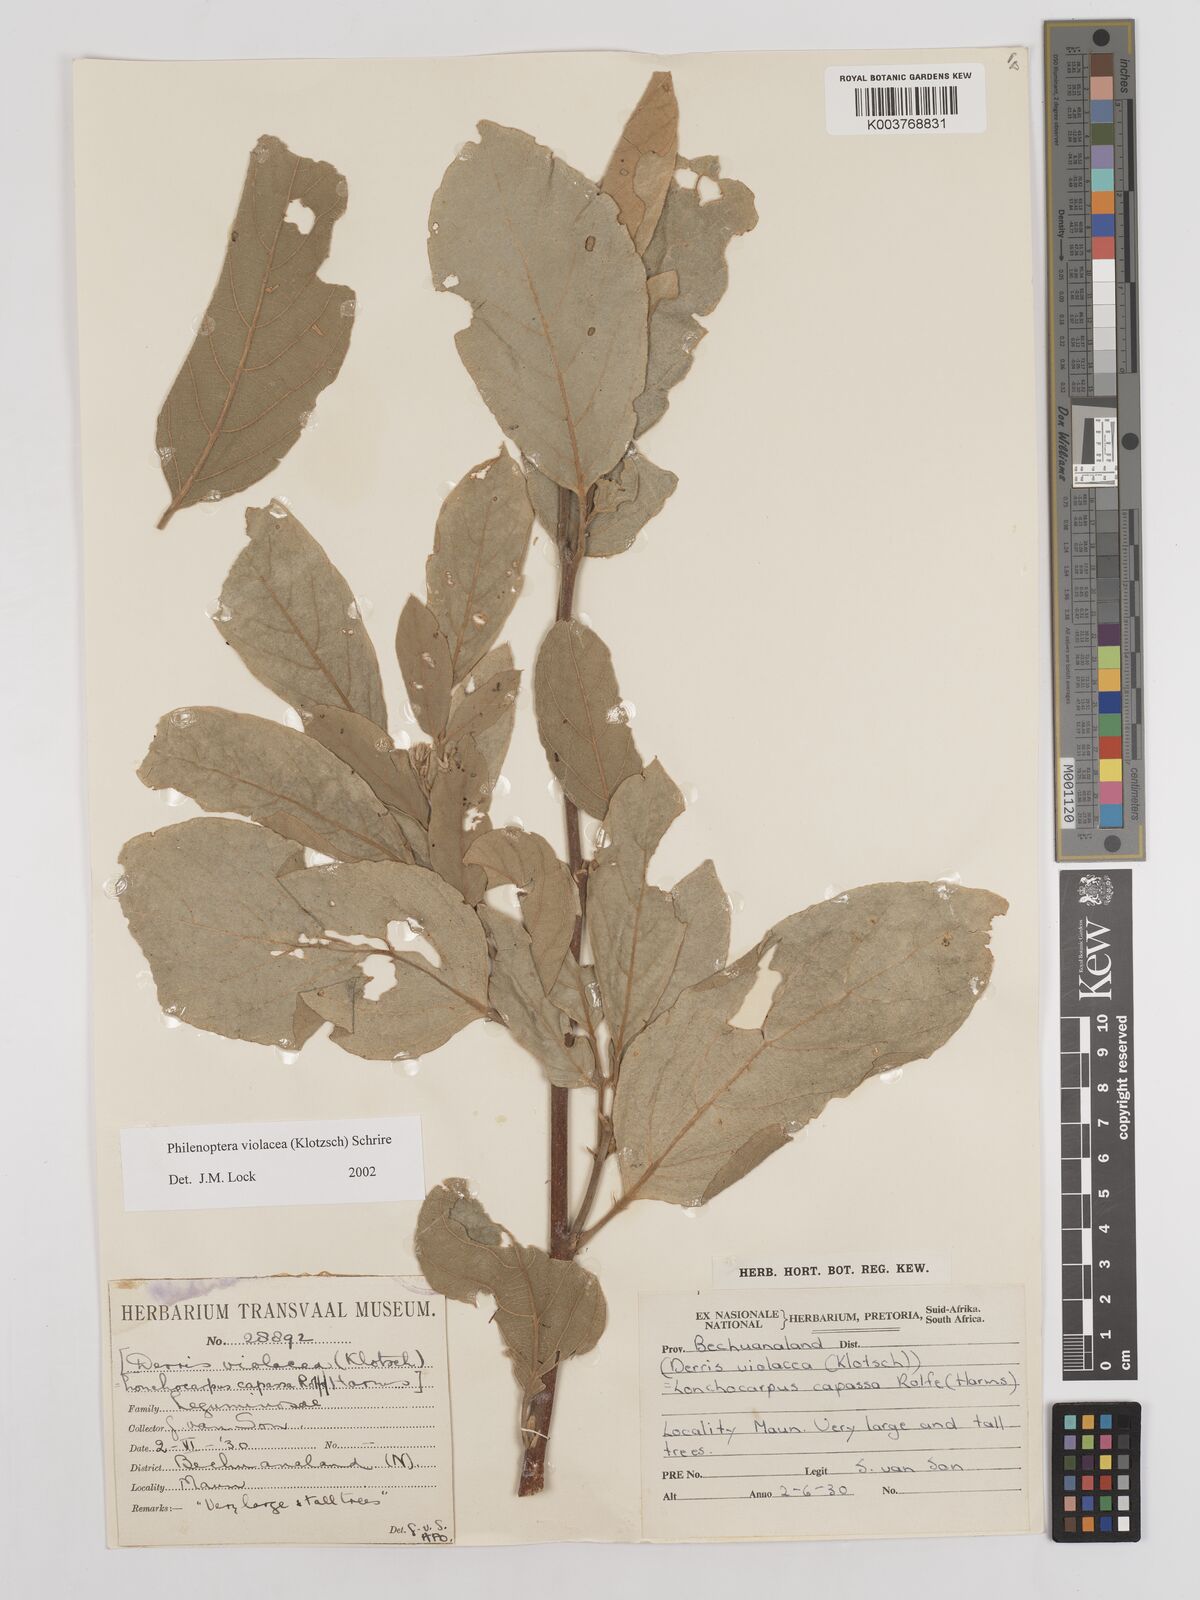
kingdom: Plantae
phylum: Tracheophyta
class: Magnoliopsida
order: Fabales
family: Fabaceae
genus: Philenoptera
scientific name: Philenoptera violacea
